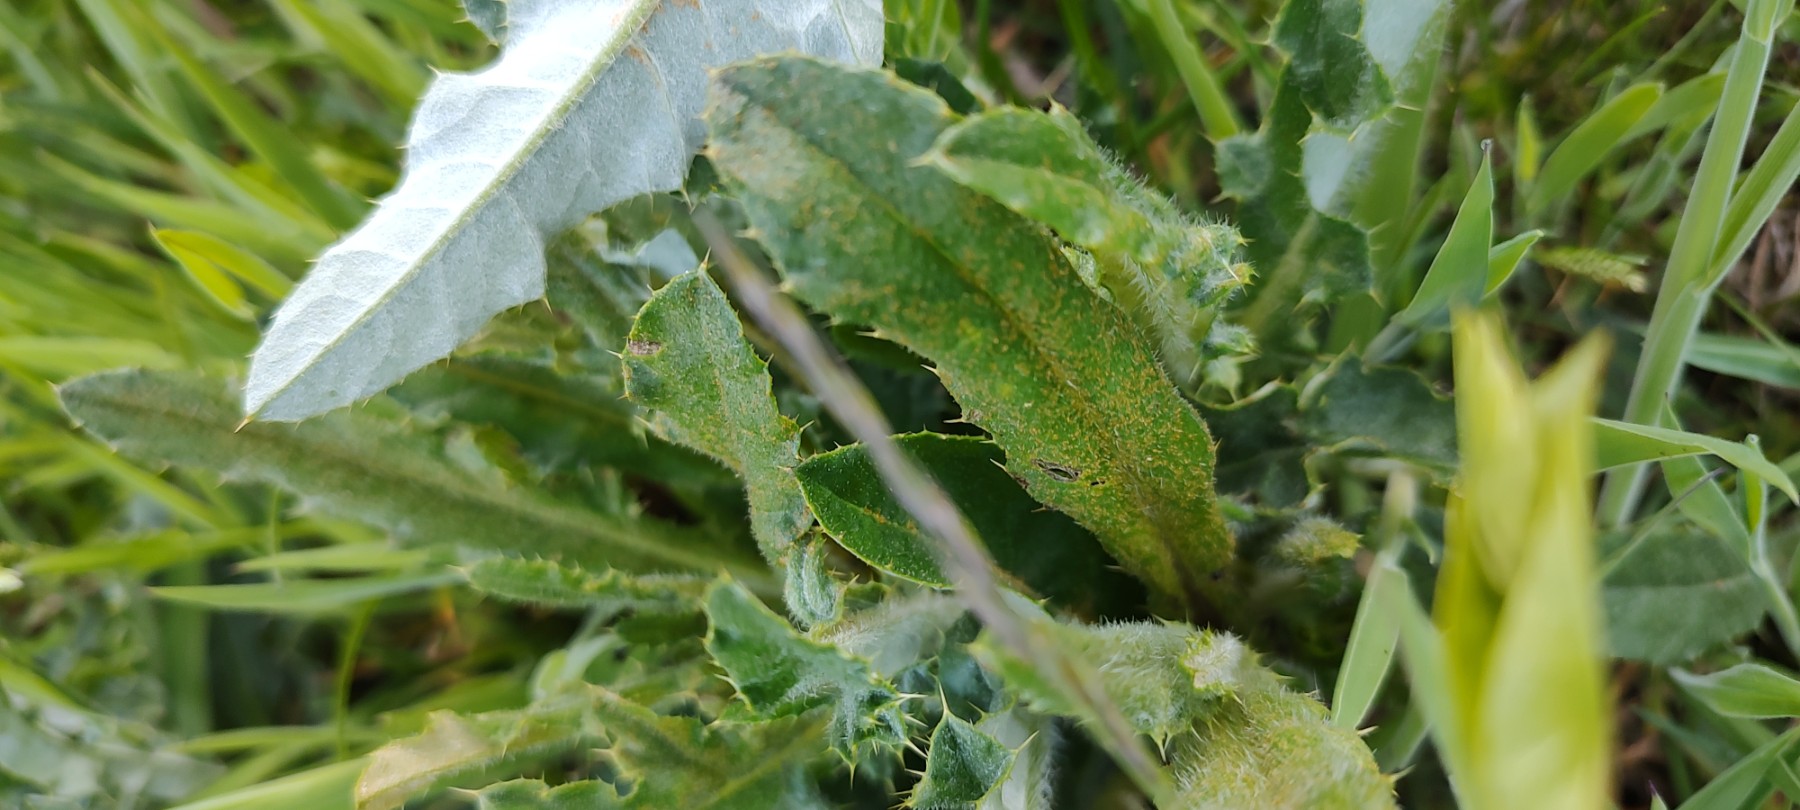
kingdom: Fungi
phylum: Basidiomycota
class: Pucciniomycetes
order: Pucciniales
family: Pucciniaceae
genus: Puccinia
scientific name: Puccinia suaveolens
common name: tidsel-tvecellerust
